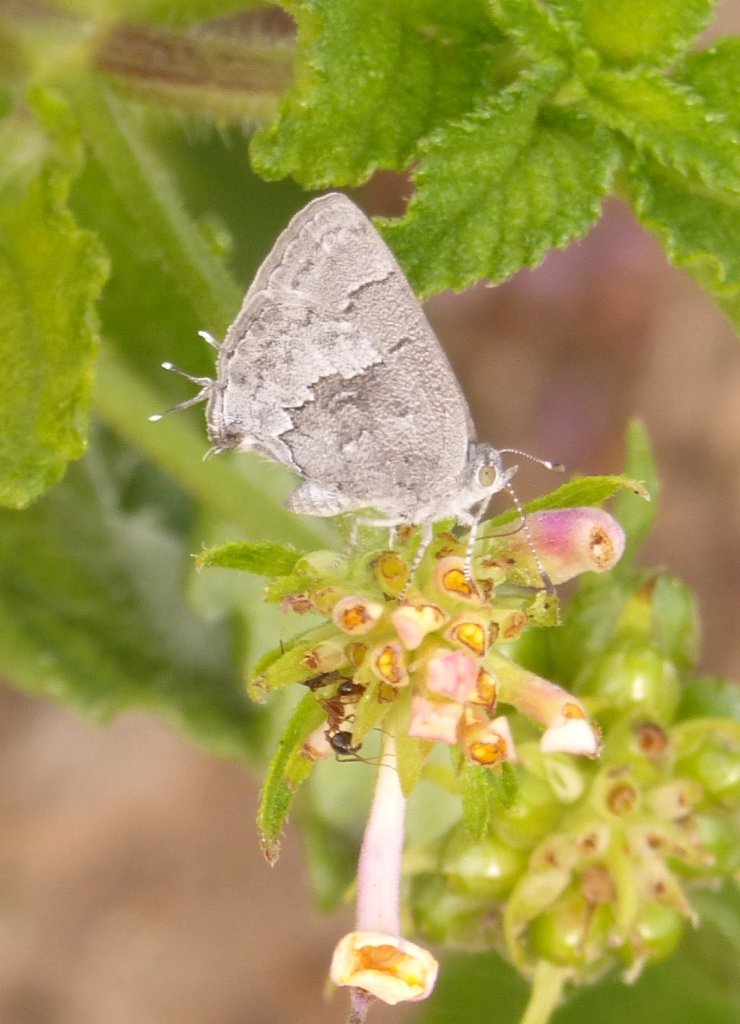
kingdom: Animalia
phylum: Arthropoda
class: Insecta
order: Lepidoptera
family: Lycaenidae
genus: Ministrymon
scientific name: Ministrymon leda
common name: Leda Ministreak
